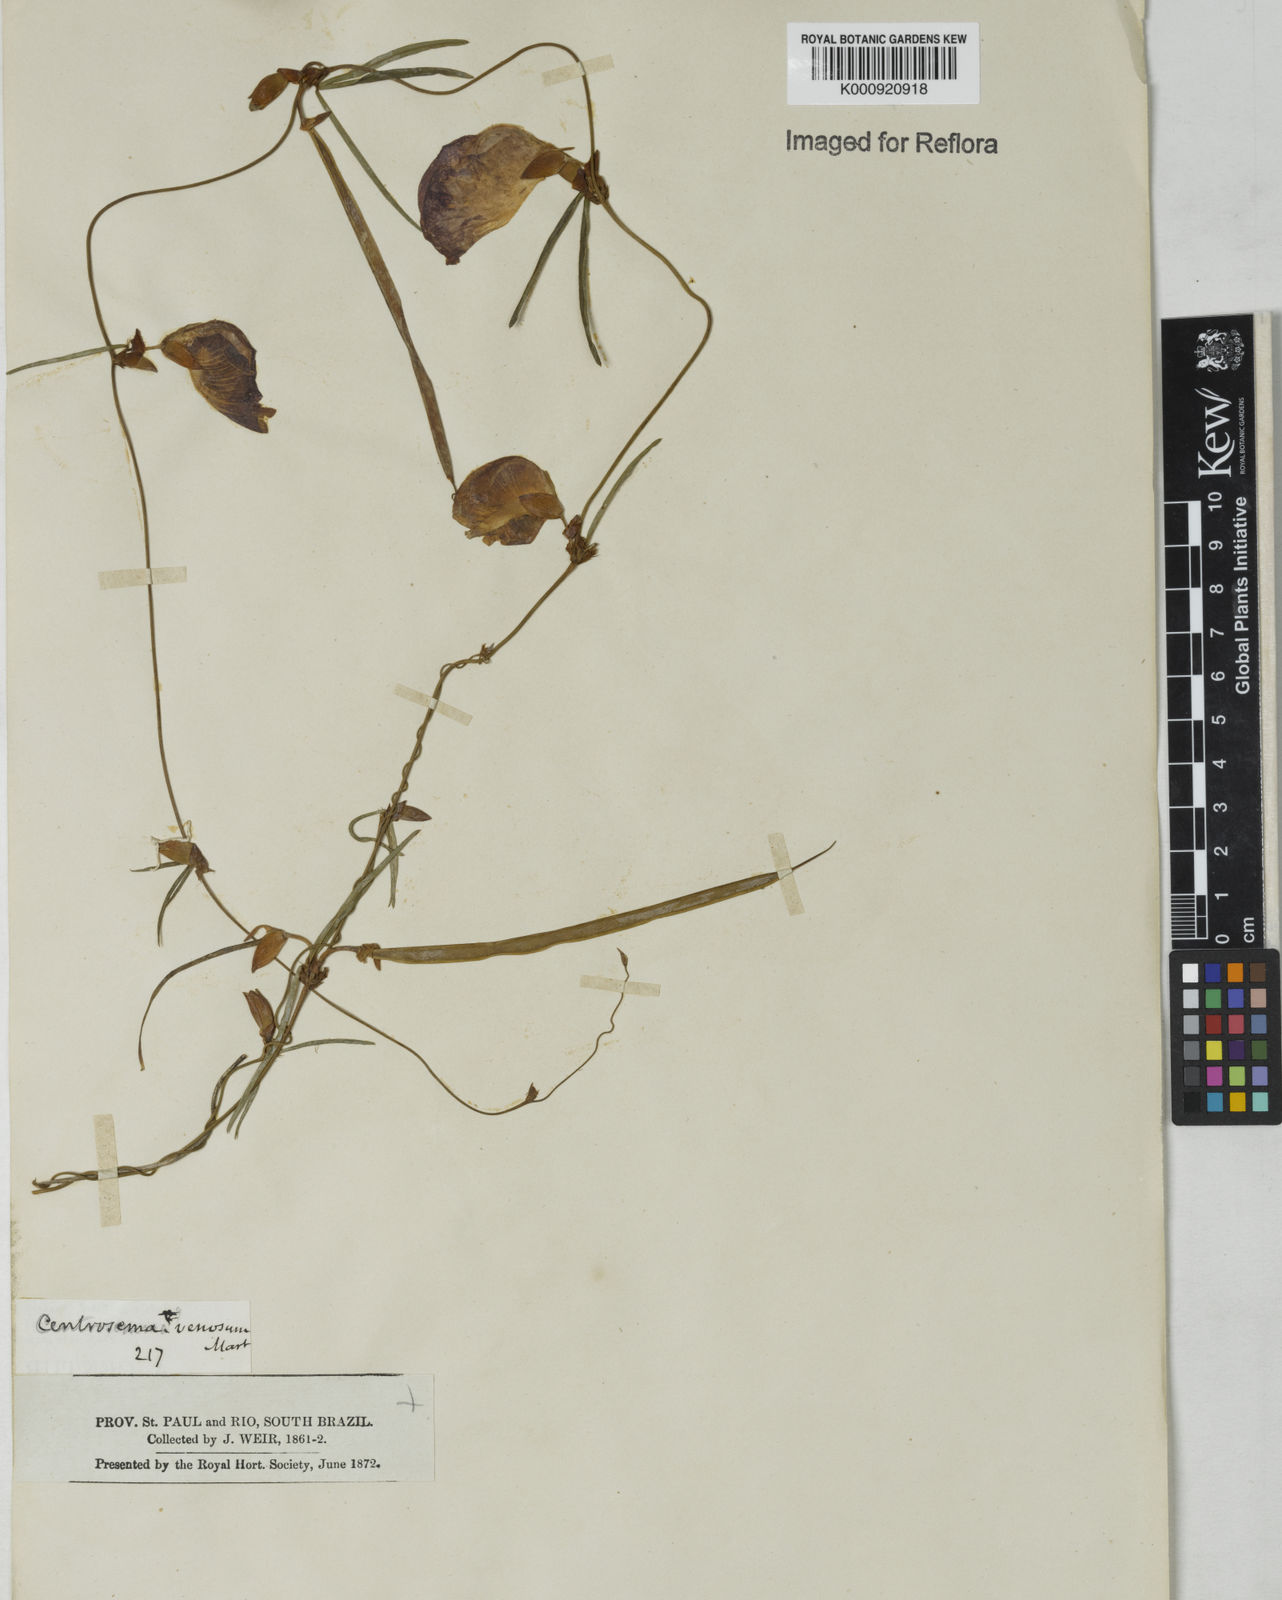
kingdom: Plantae
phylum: Tracheophyta
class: Magnoliopsida
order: Fabales
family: Fabaceae
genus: Centrosema
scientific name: Centrosema
